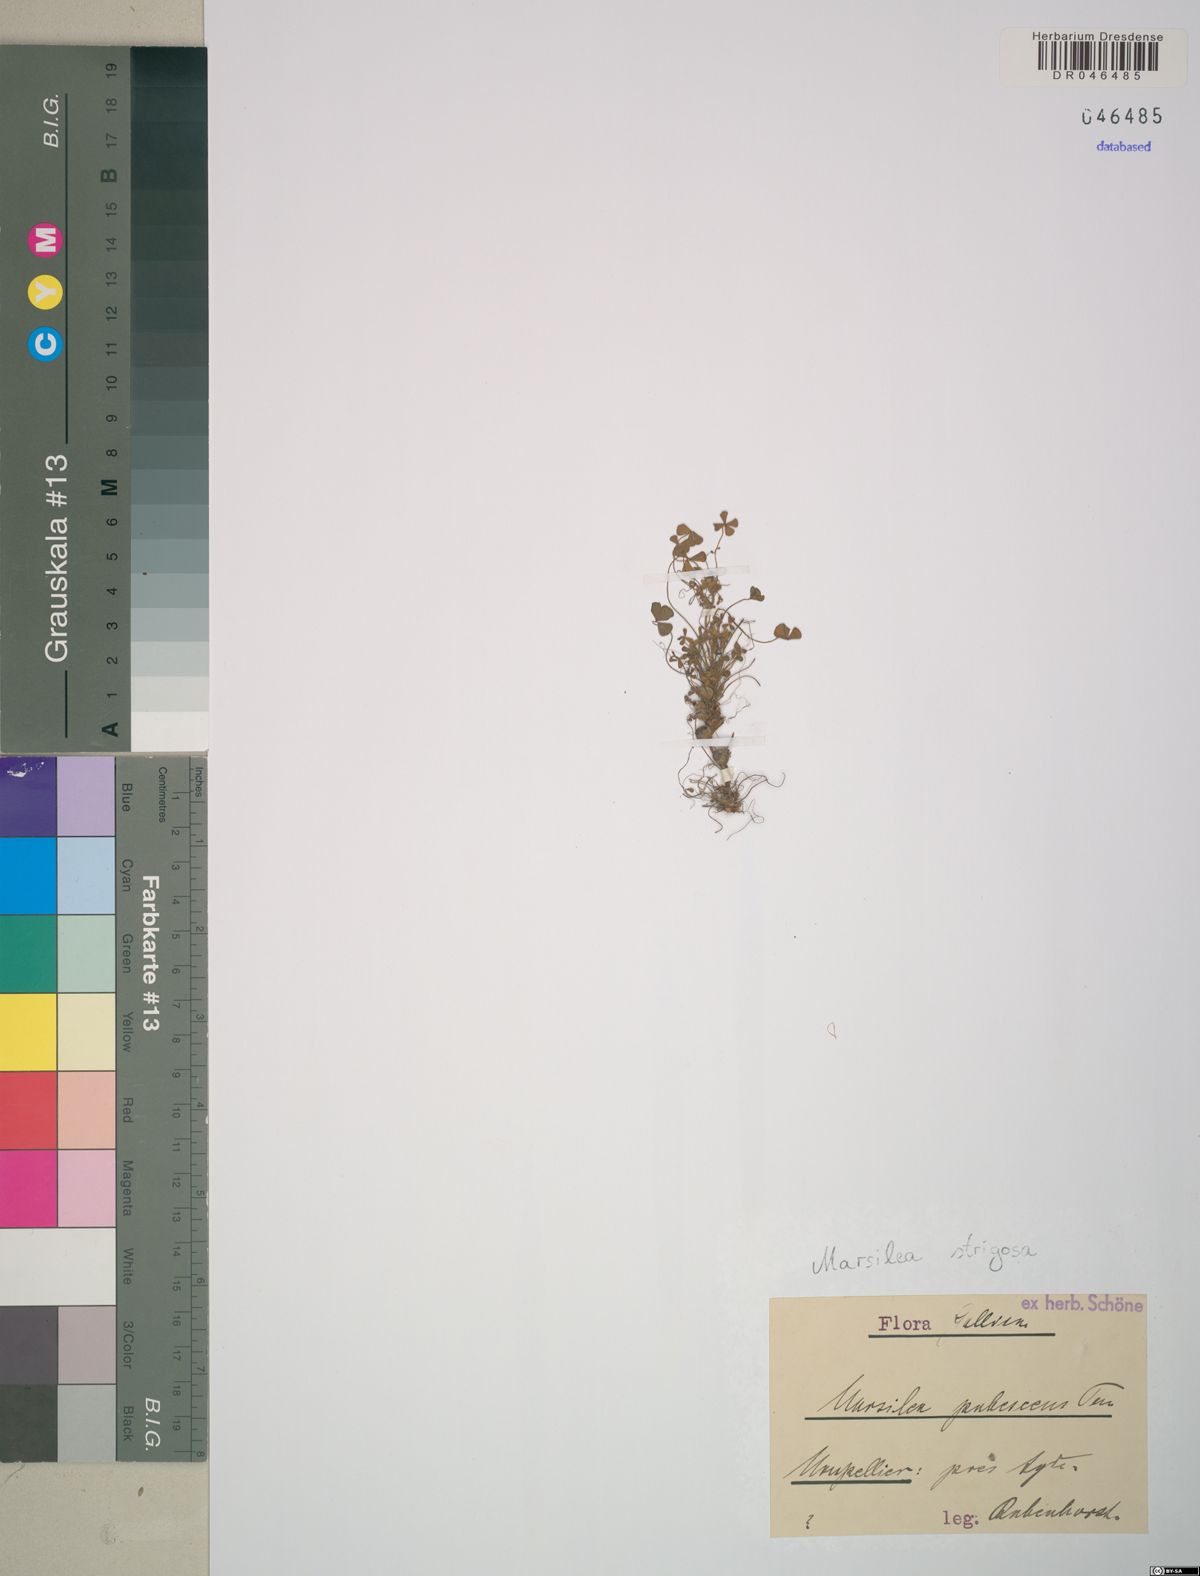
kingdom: Plantae
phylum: Tracheophyta
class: Polypodiopsida
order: Salviniales
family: Marsileaceae
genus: Marsilea
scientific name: Marsilea strigosa
